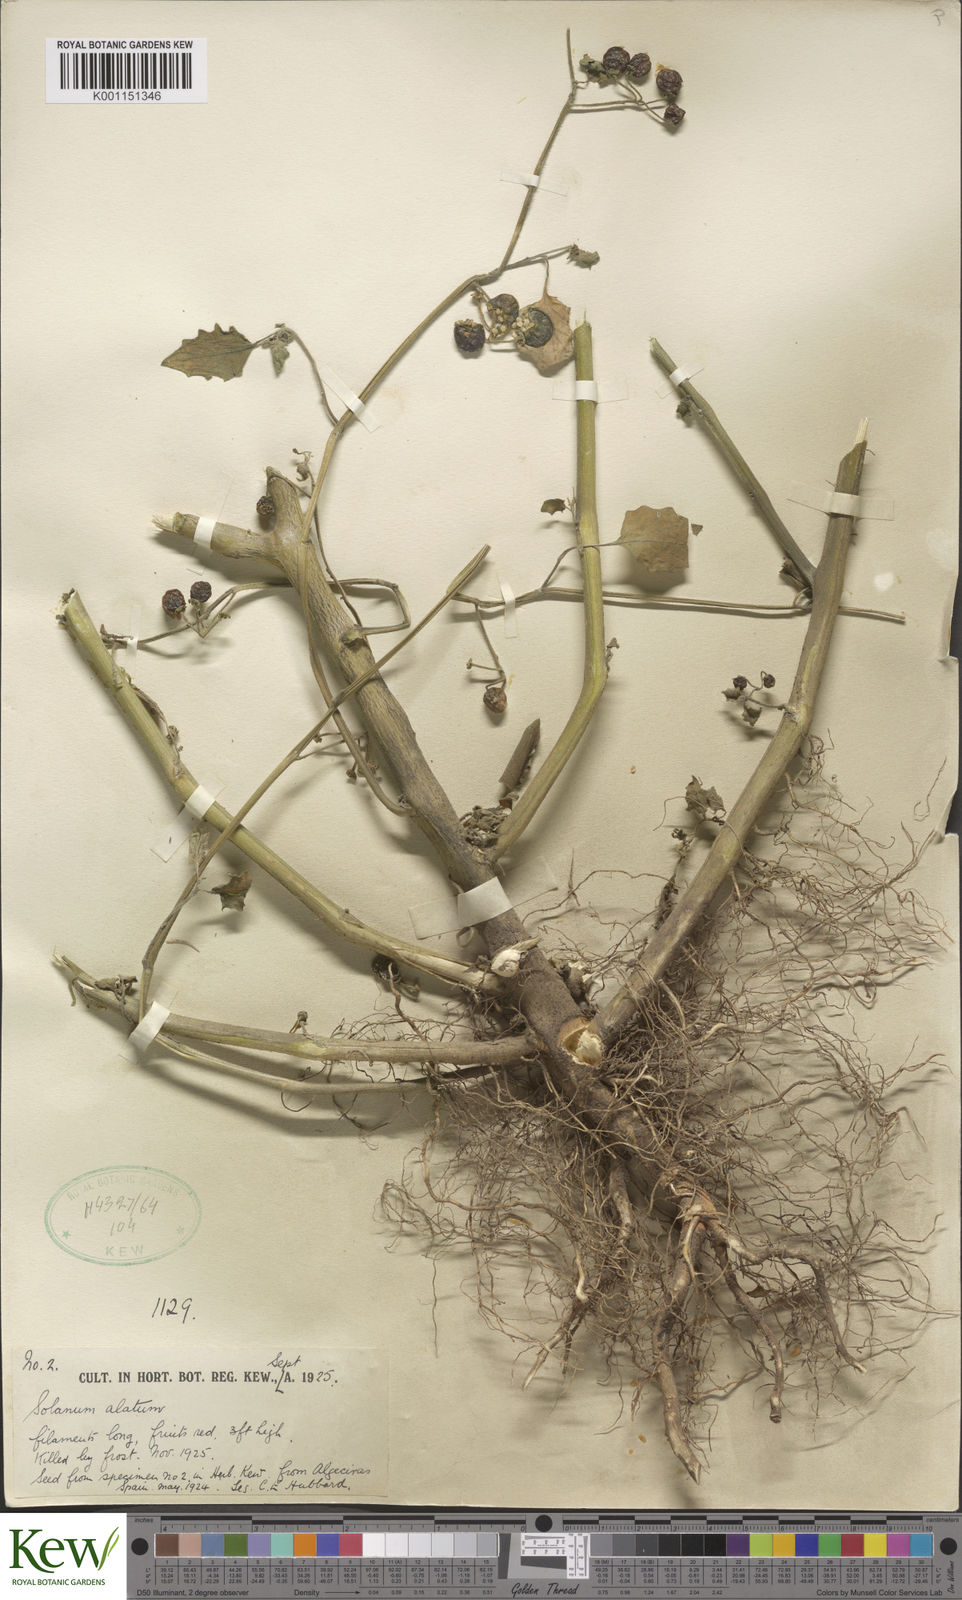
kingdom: Plantae
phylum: Tracheophyta
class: Magnoliopsida
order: Solanales
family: Solanaceae
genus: Solanum
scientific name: Solanum alatum
